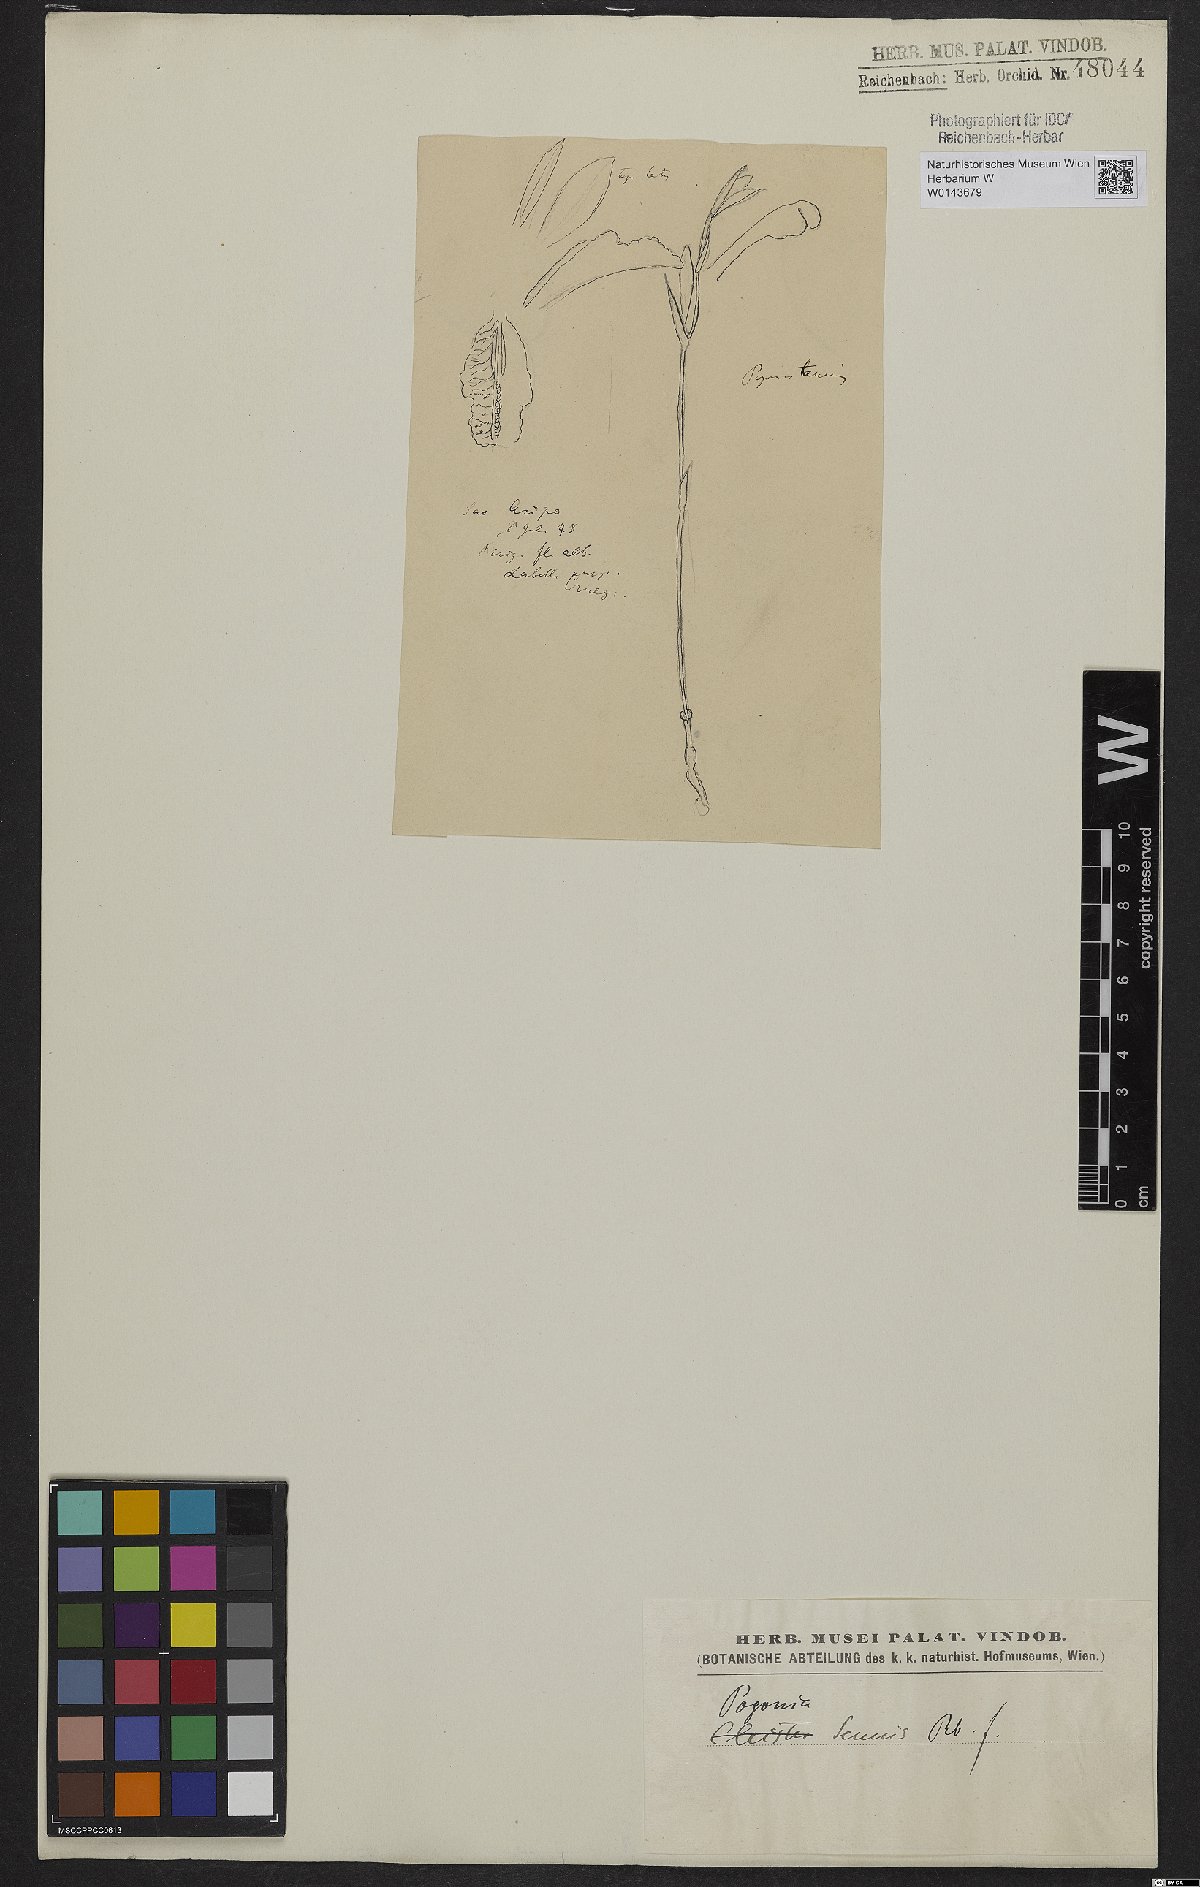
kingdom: Plantae
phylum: Tracheophyta
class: Liliopsida
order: Asparagales
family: Orchidaceae
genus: Cleistes
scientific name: Cleistes tenuis
